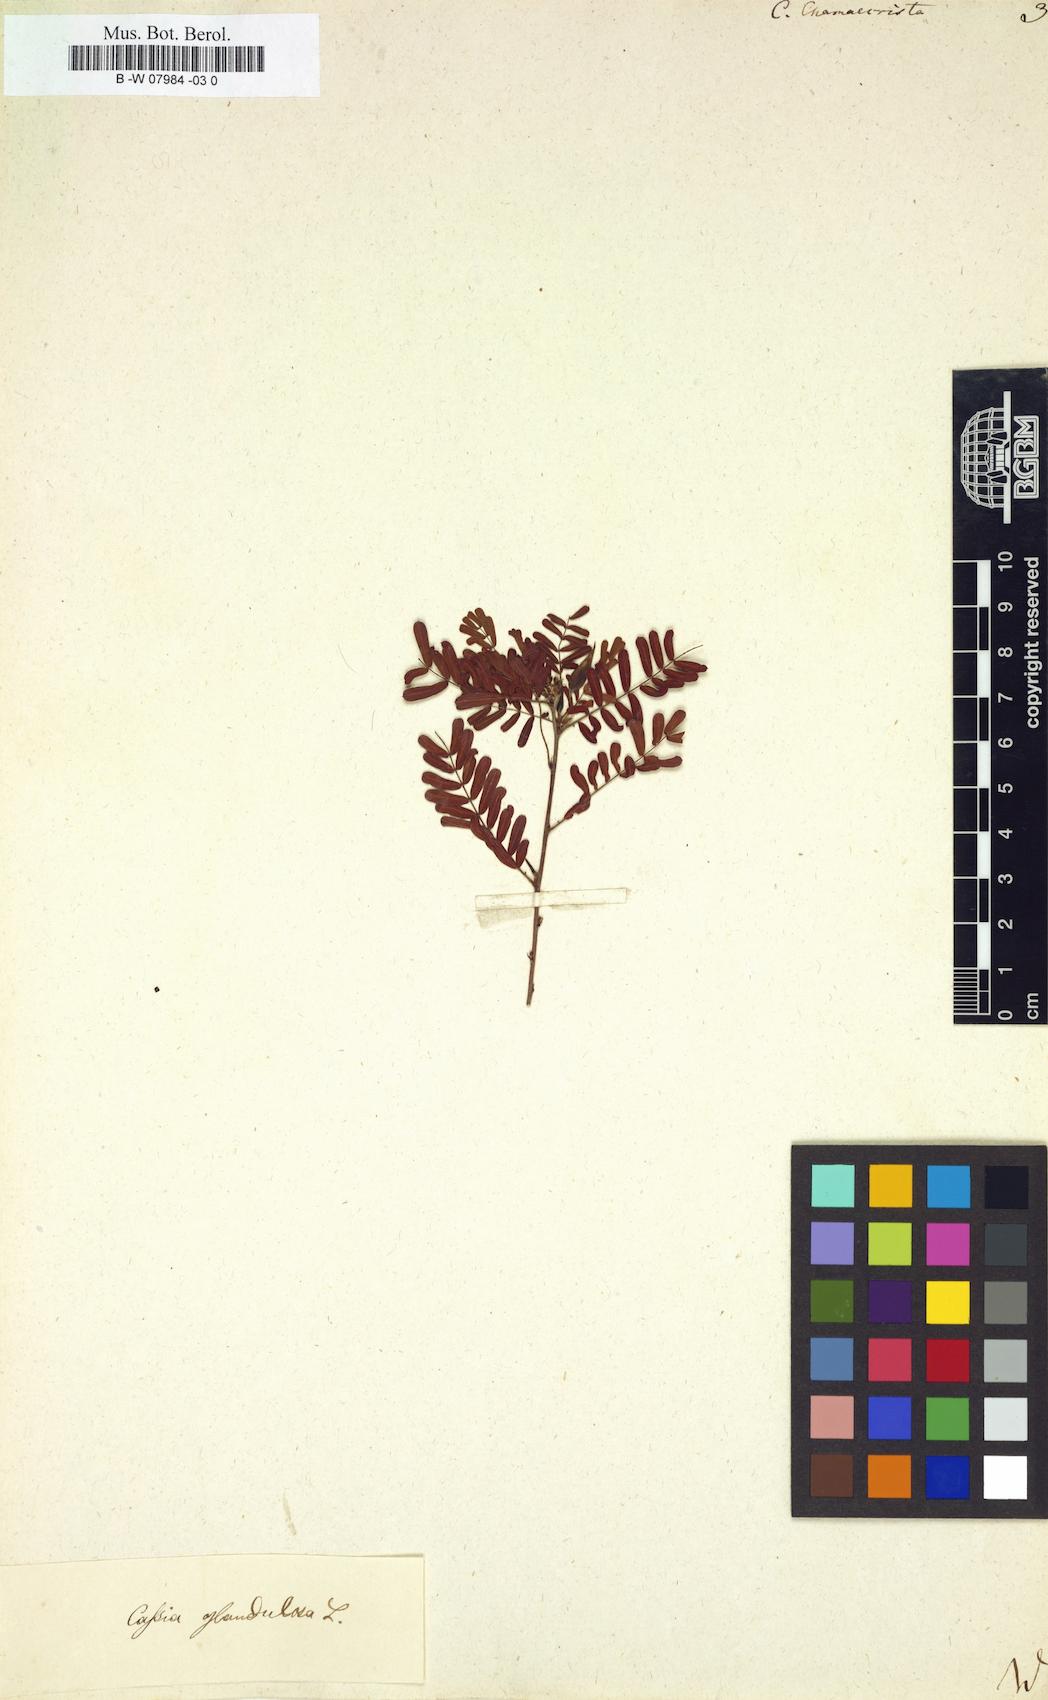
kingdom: Plantae
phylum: Tracheophyta
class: Magnoliopsida
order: Fabales
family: Fabaceae
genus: Chamaecrista
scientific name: Chamaecrista
